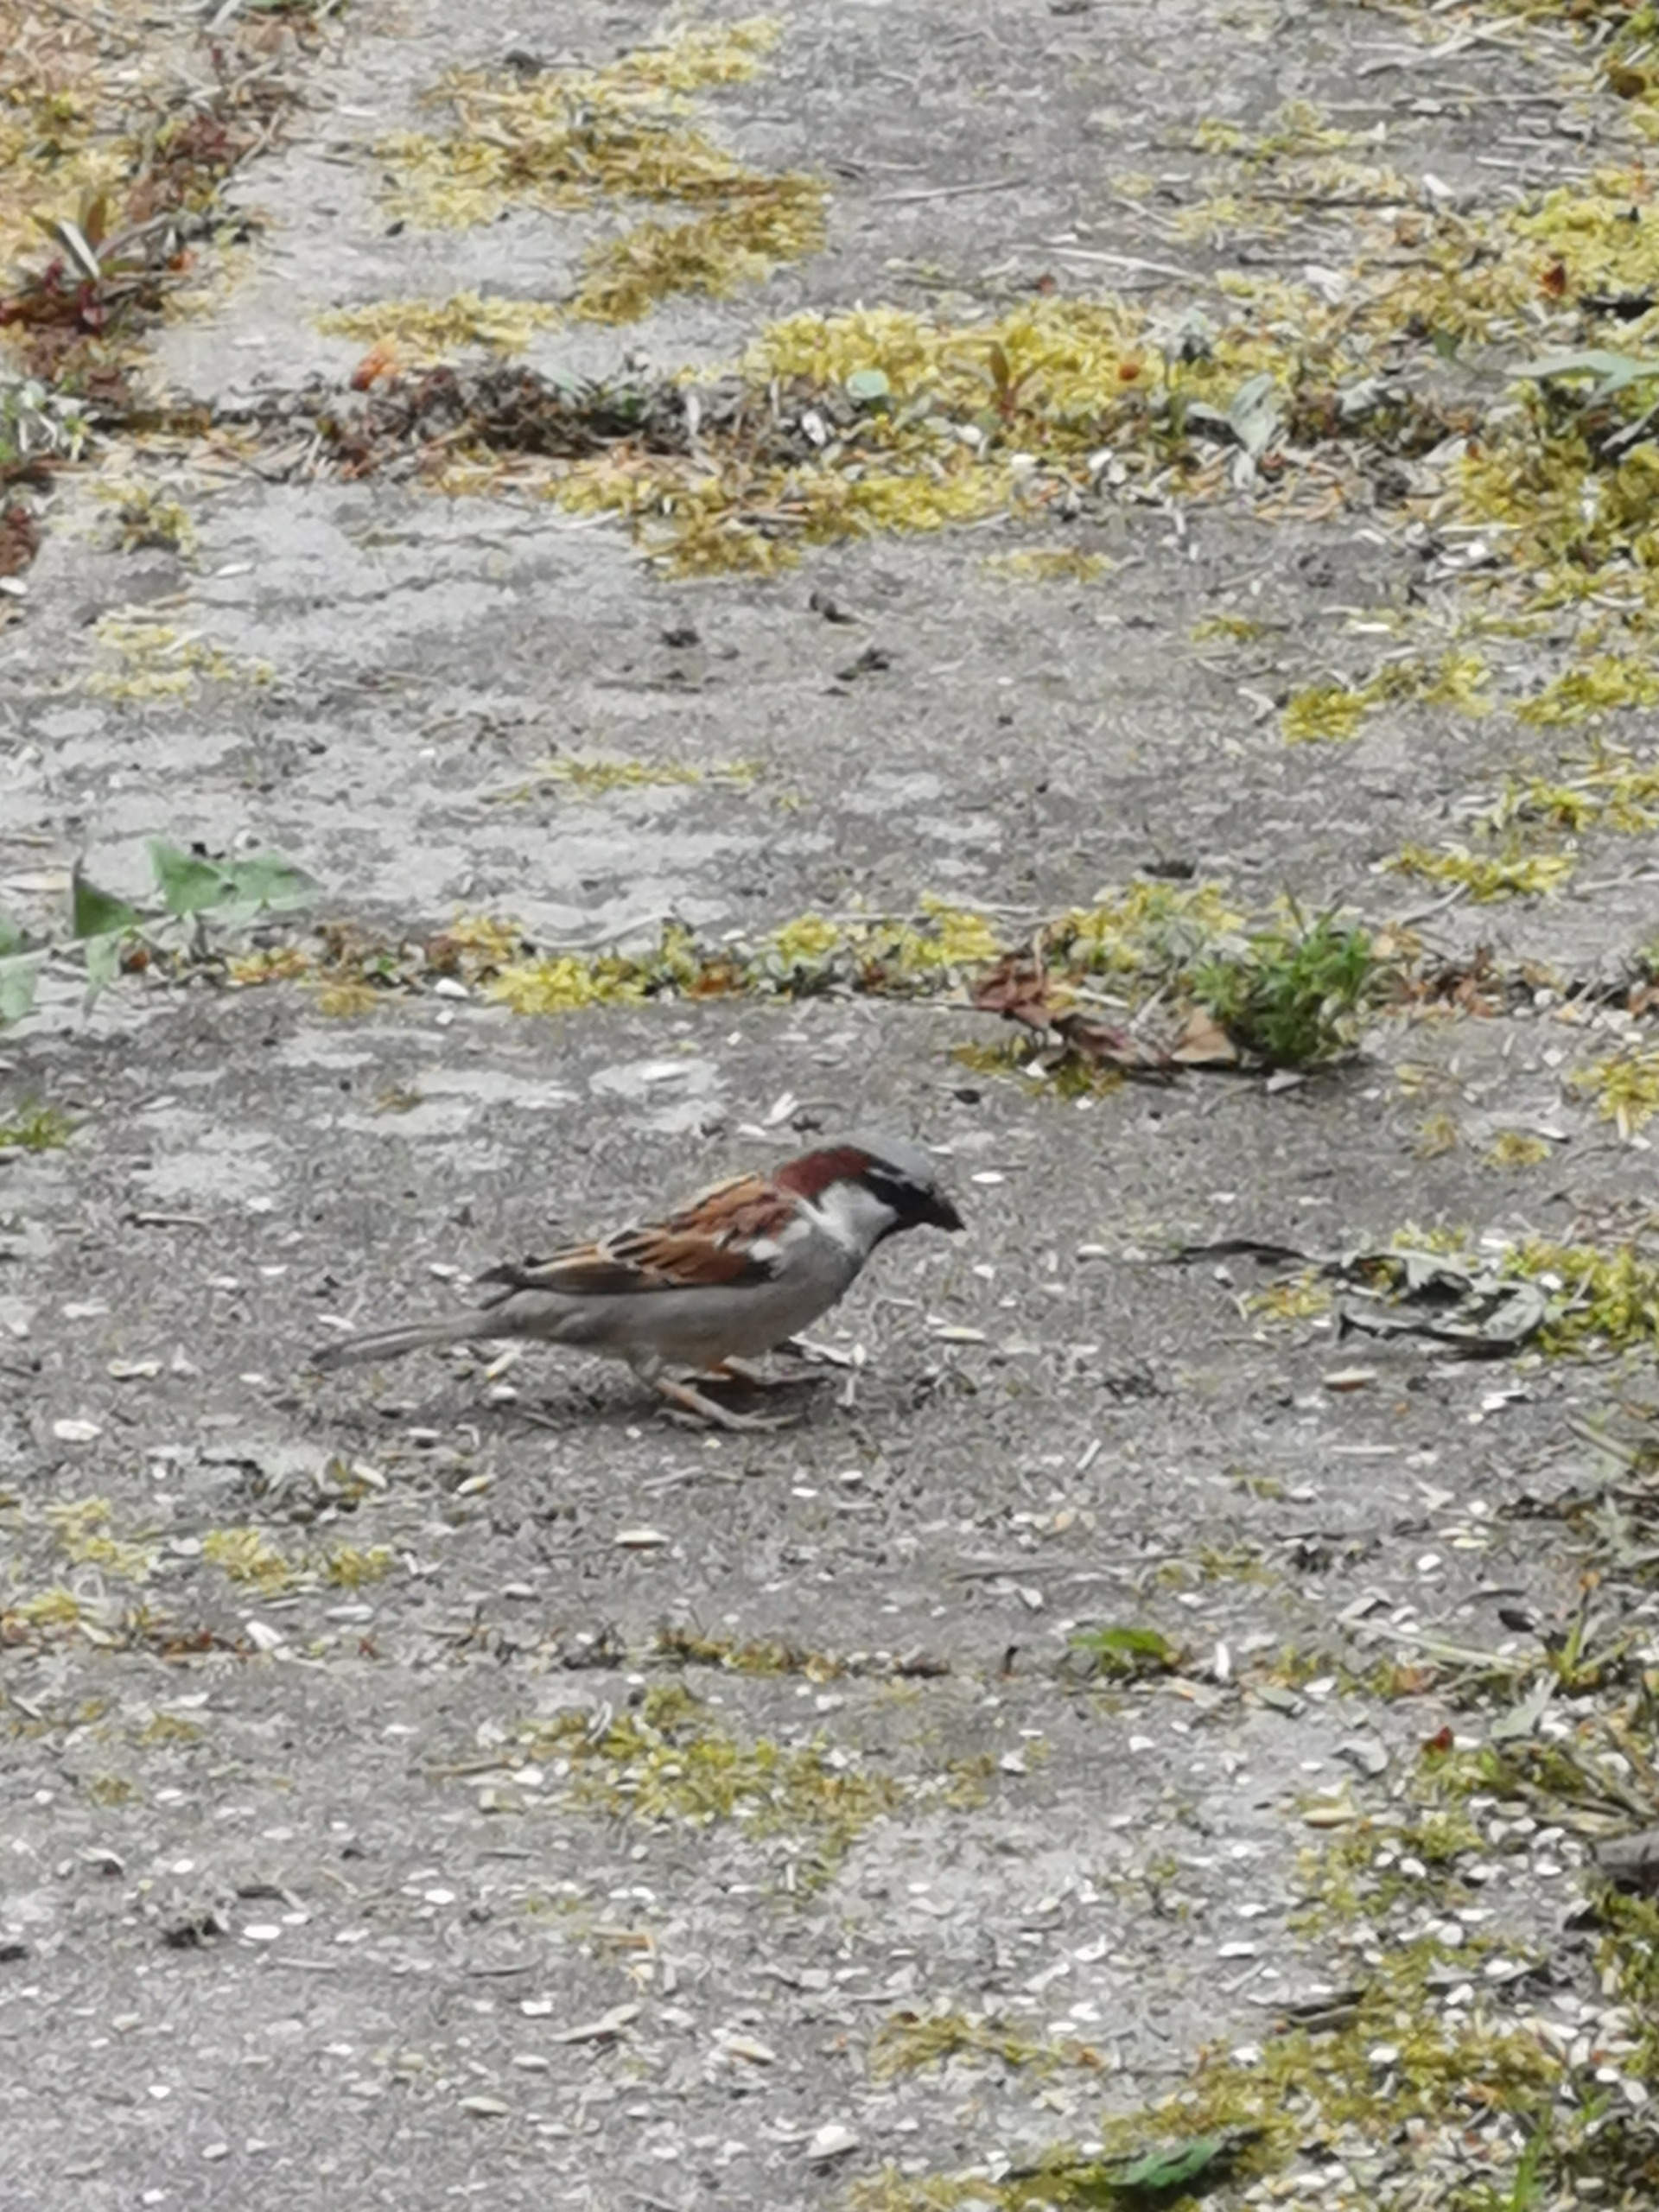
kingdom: Animalia
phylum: Chordata
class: Aves
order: Passeriformes
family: Passeridae
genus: Passer
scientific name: Passer domesticus
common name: Gråspurv
